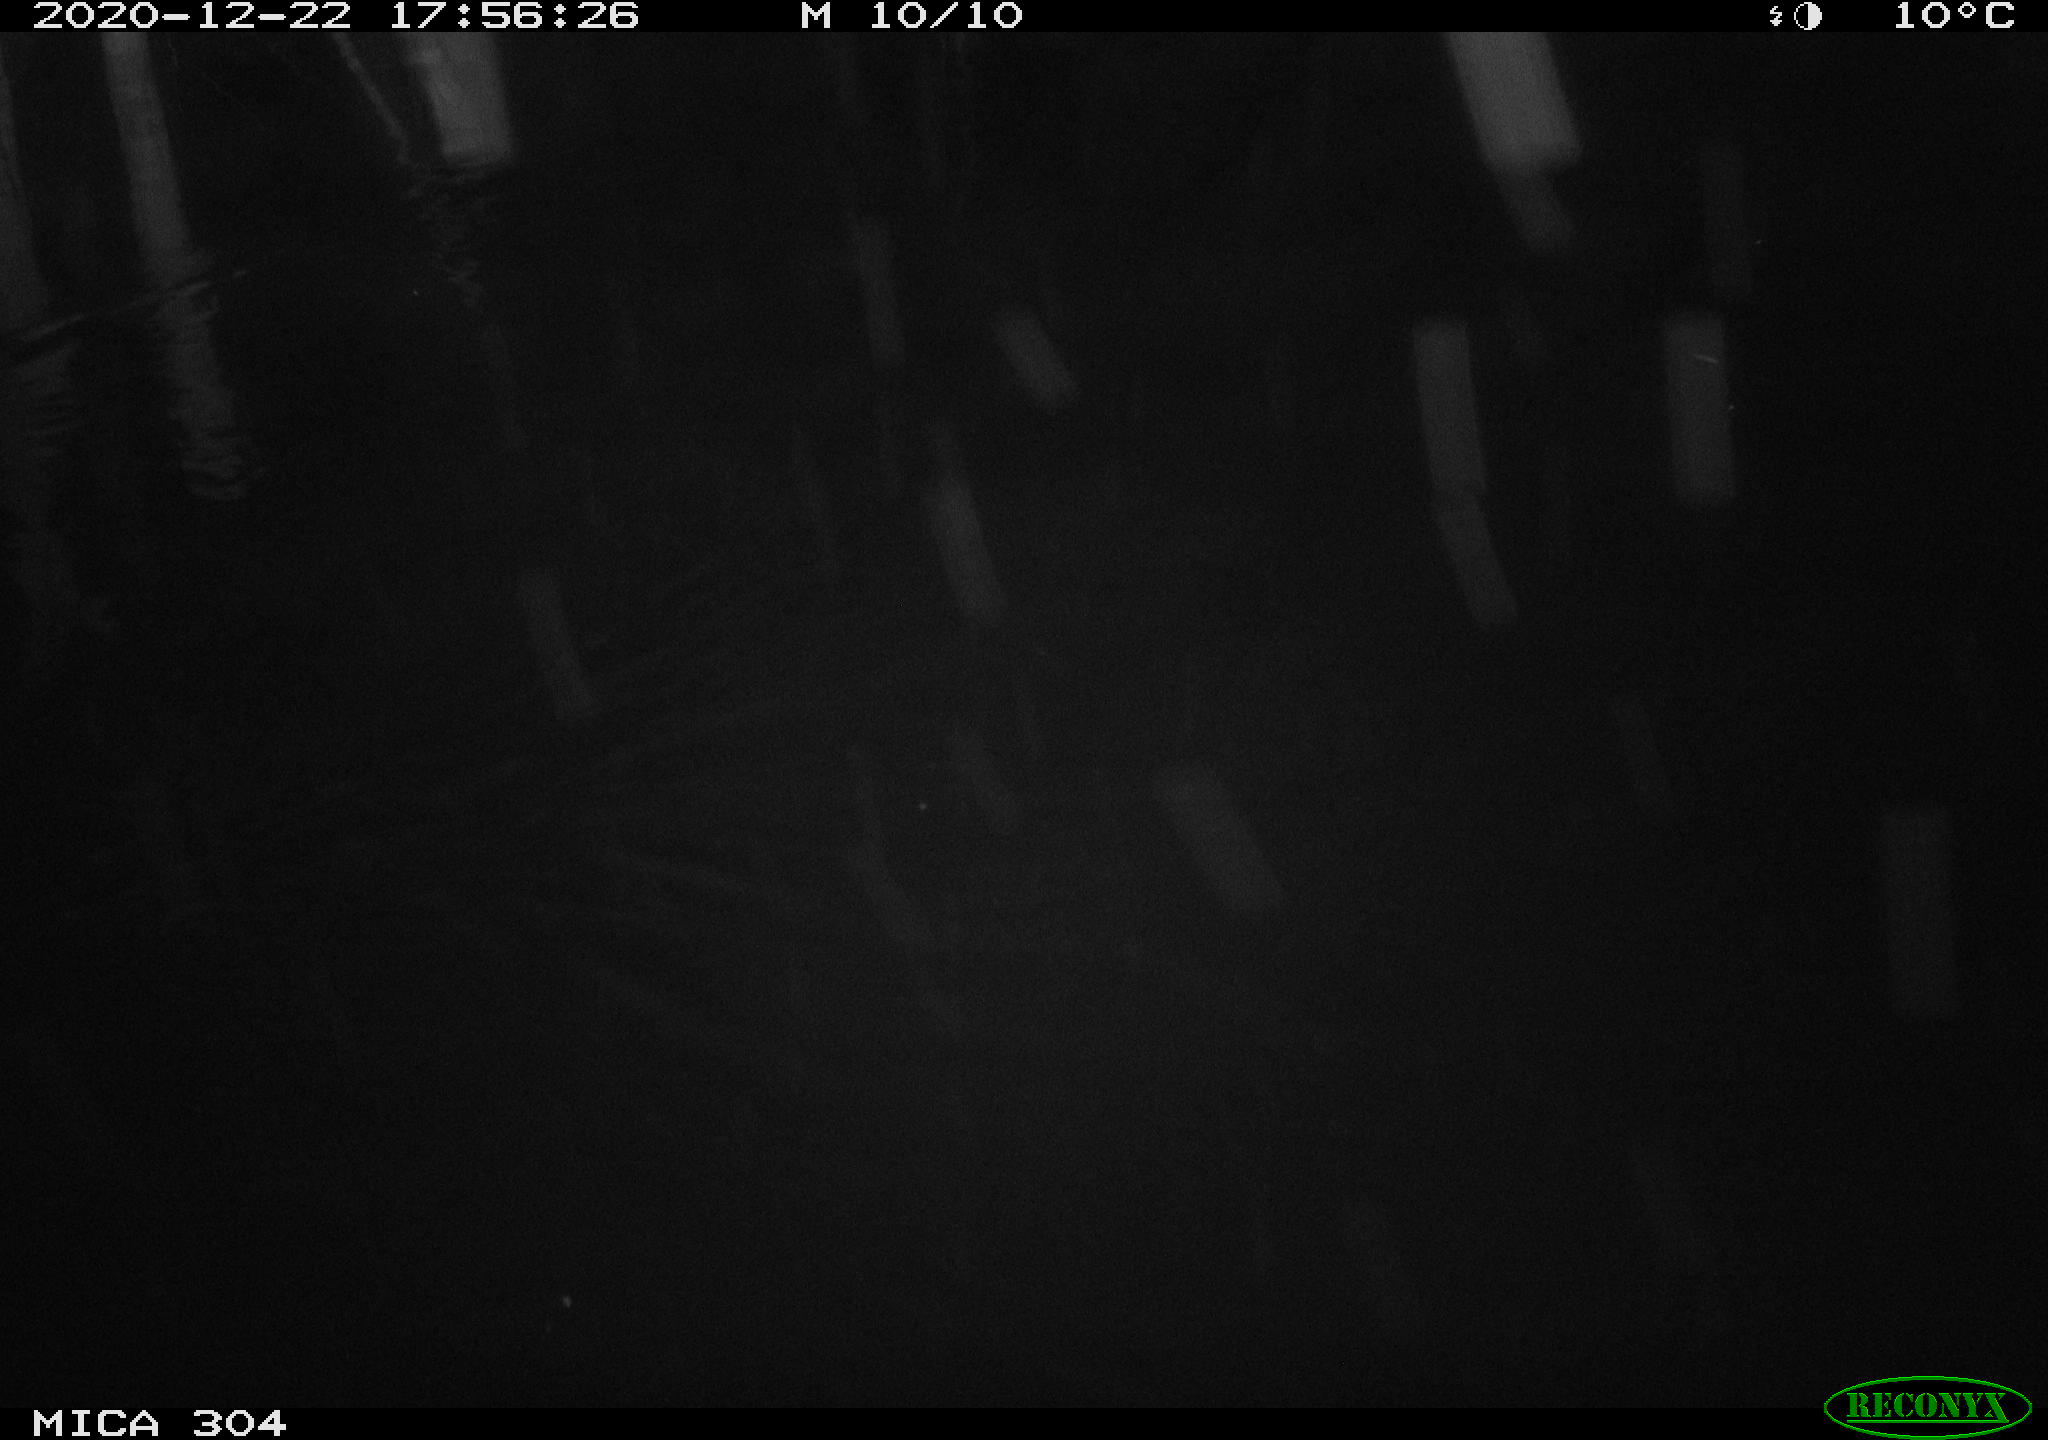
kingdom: Animalia
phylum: Chordata
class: Mammalia
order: Rodentia
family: Cricetidae
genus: Ondatra
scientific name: Ondatra zibethicus
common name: Muskrat
